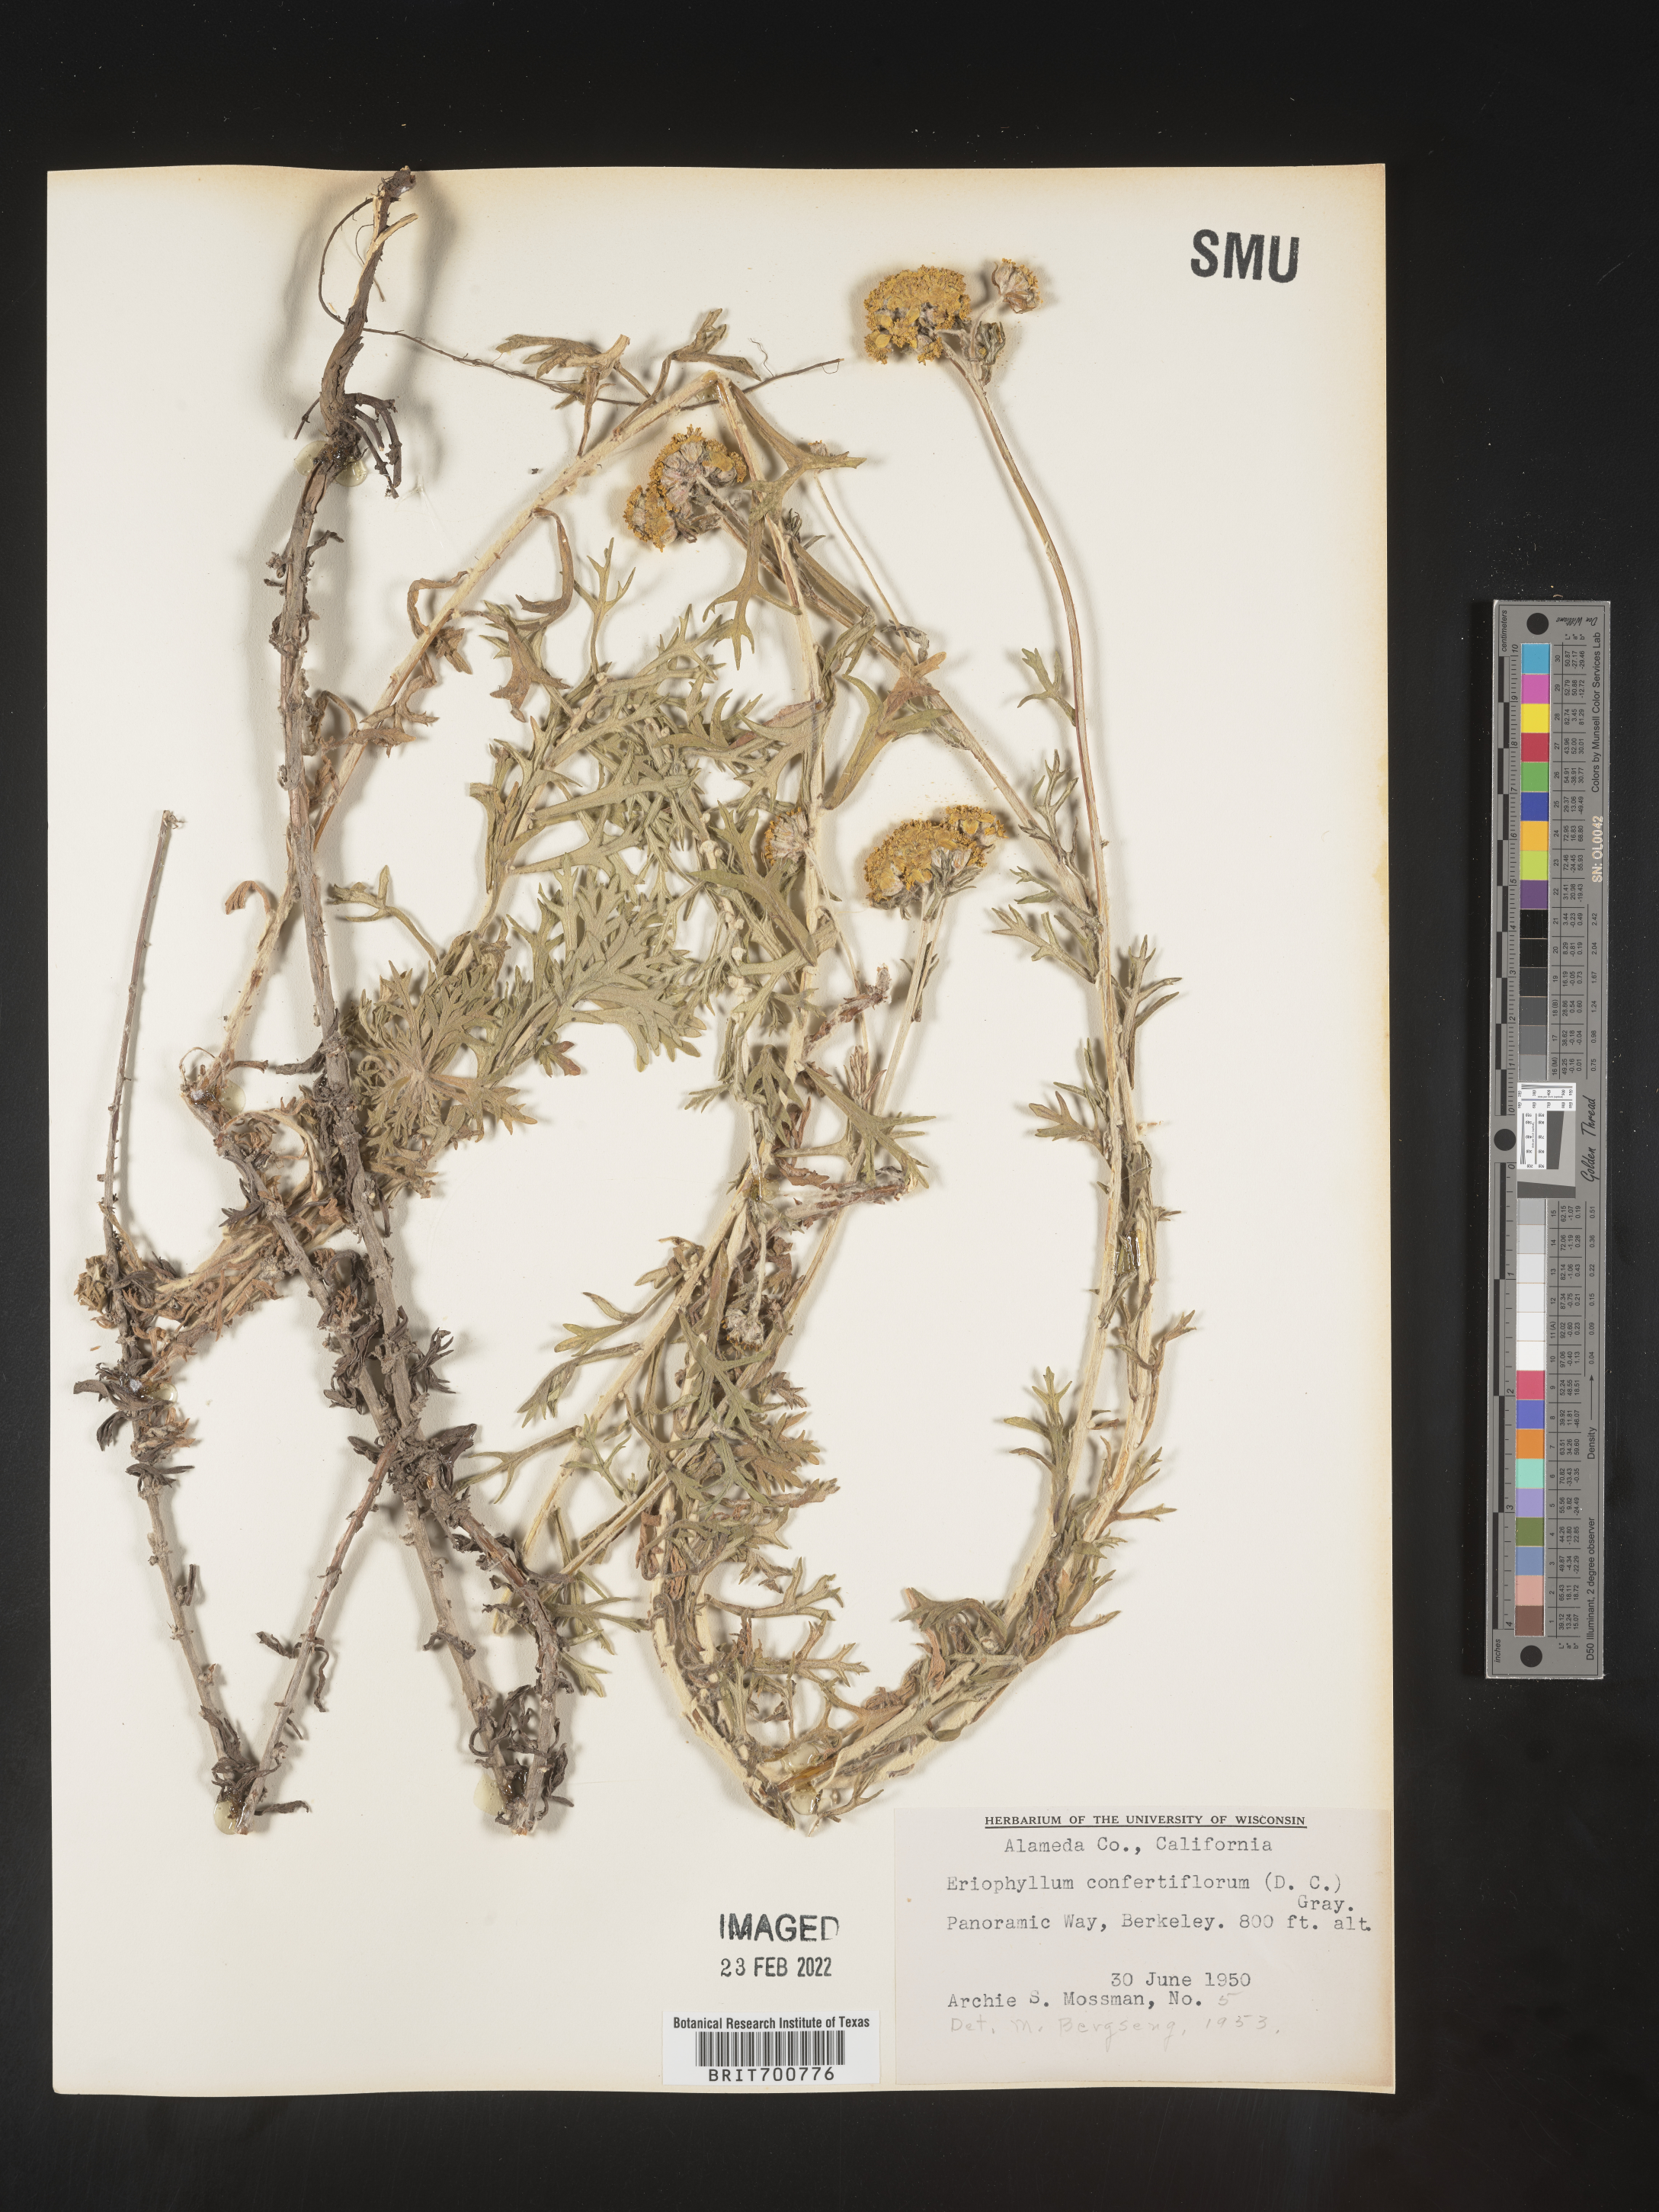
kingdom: Plantae
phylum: Tracheophyta
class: Magnoliopsida
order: Asterales
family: Asteraceae
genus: Eriophyllum
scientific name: Eriophyllum confertiflorum
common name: Golden-yarrow
